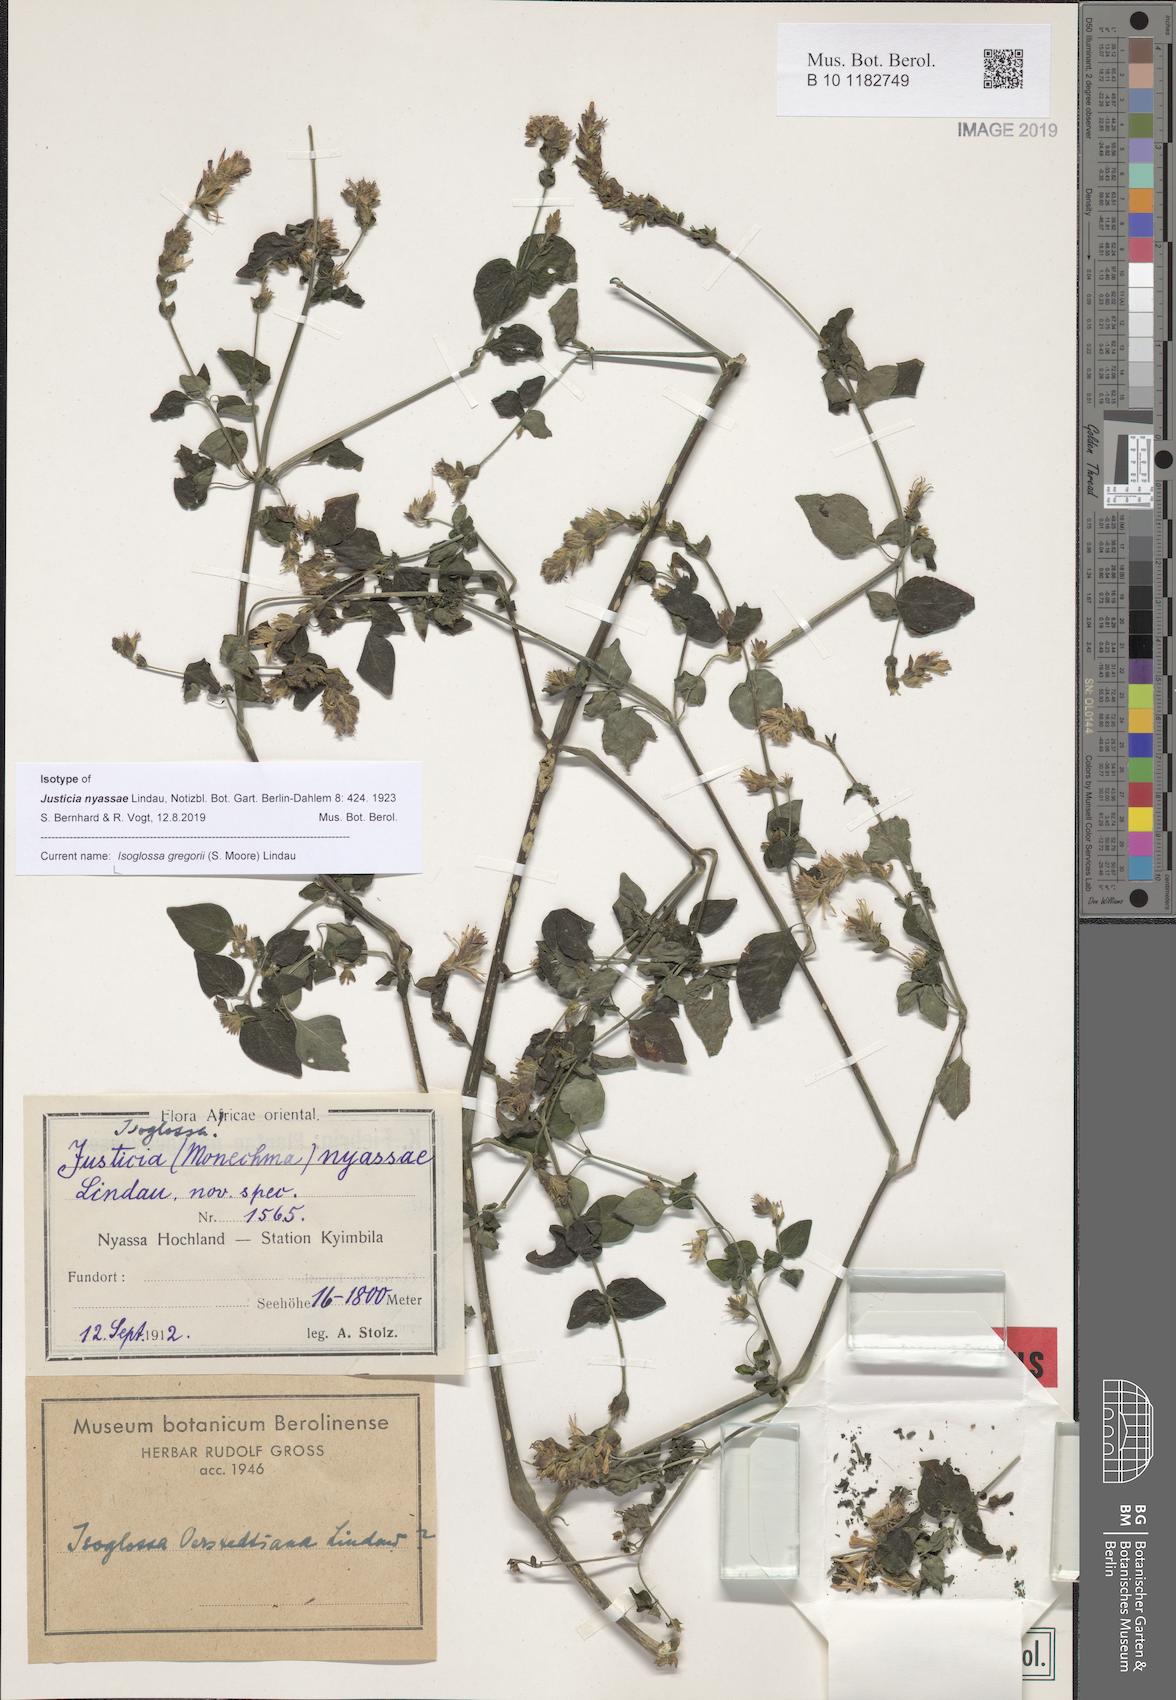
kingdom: Plantae
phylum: Tracheophyta
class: Magnoliopsida
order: Lamiales
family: Acanthaceae
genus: Isoglossa
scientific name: Isoglossa gregorii
